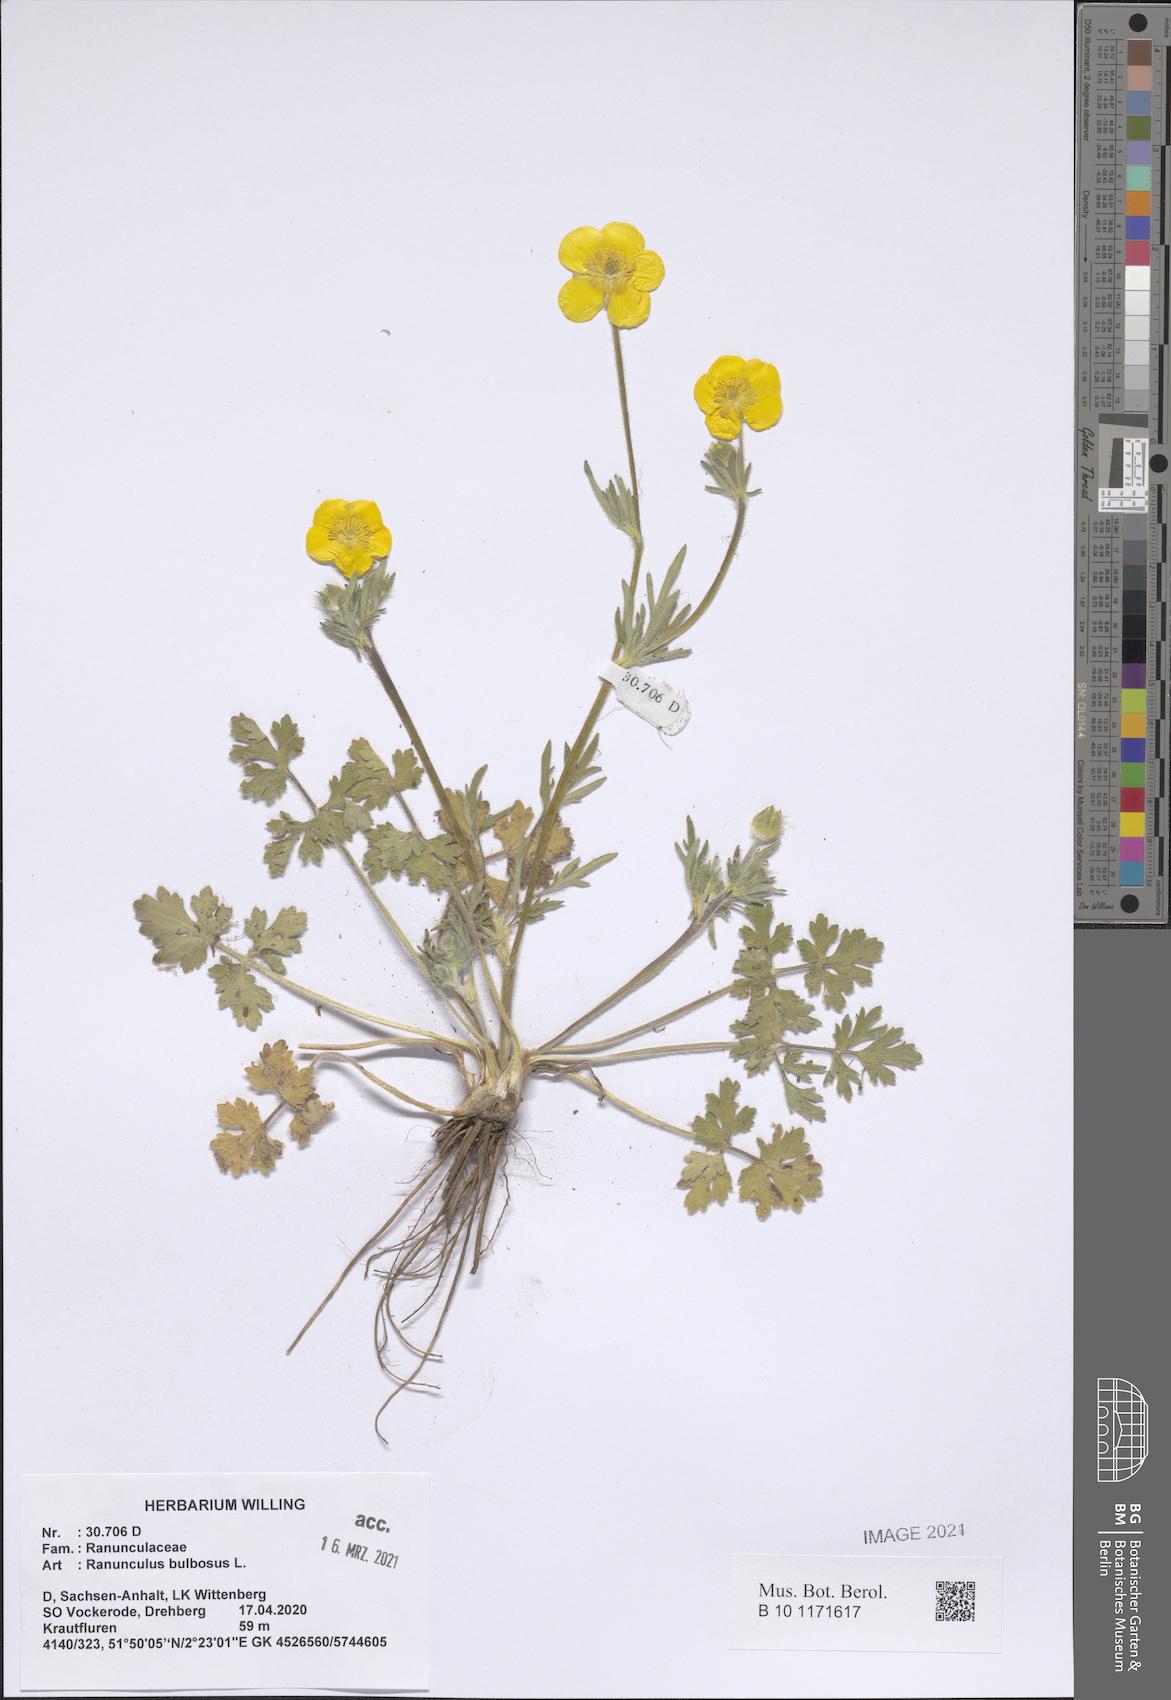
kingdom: Plantae
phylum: Tracheophyta
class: Magnoliopsida
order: Ranunculales
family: Ranunculaceae
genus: Ranunculus
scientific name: Ranunculus bulbosus
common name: Bulbous buttercup
